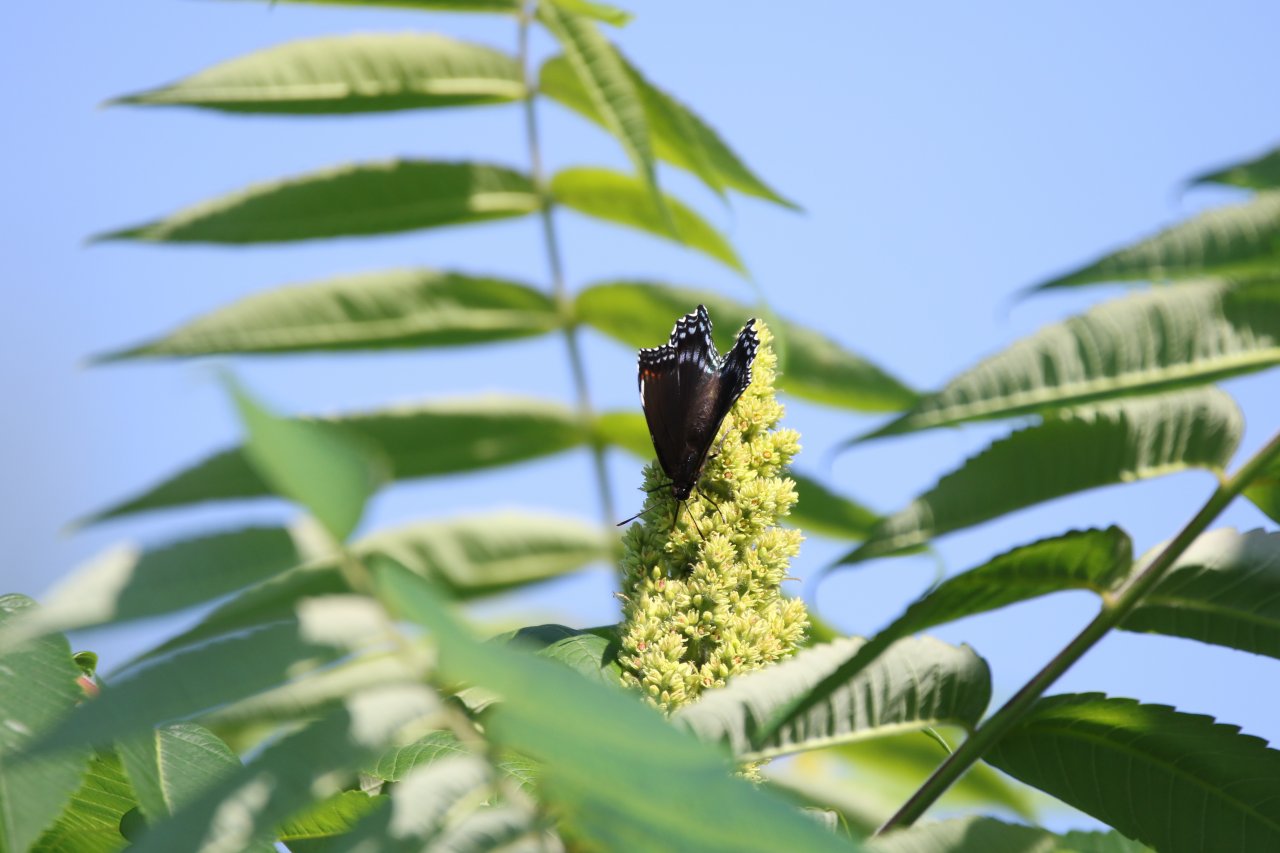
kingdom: Animalia
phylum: Arthropoda
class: Insecta
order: Lepidoptera
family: Nymphalidae
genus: Limenitis
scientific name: Limenitis astyanax
